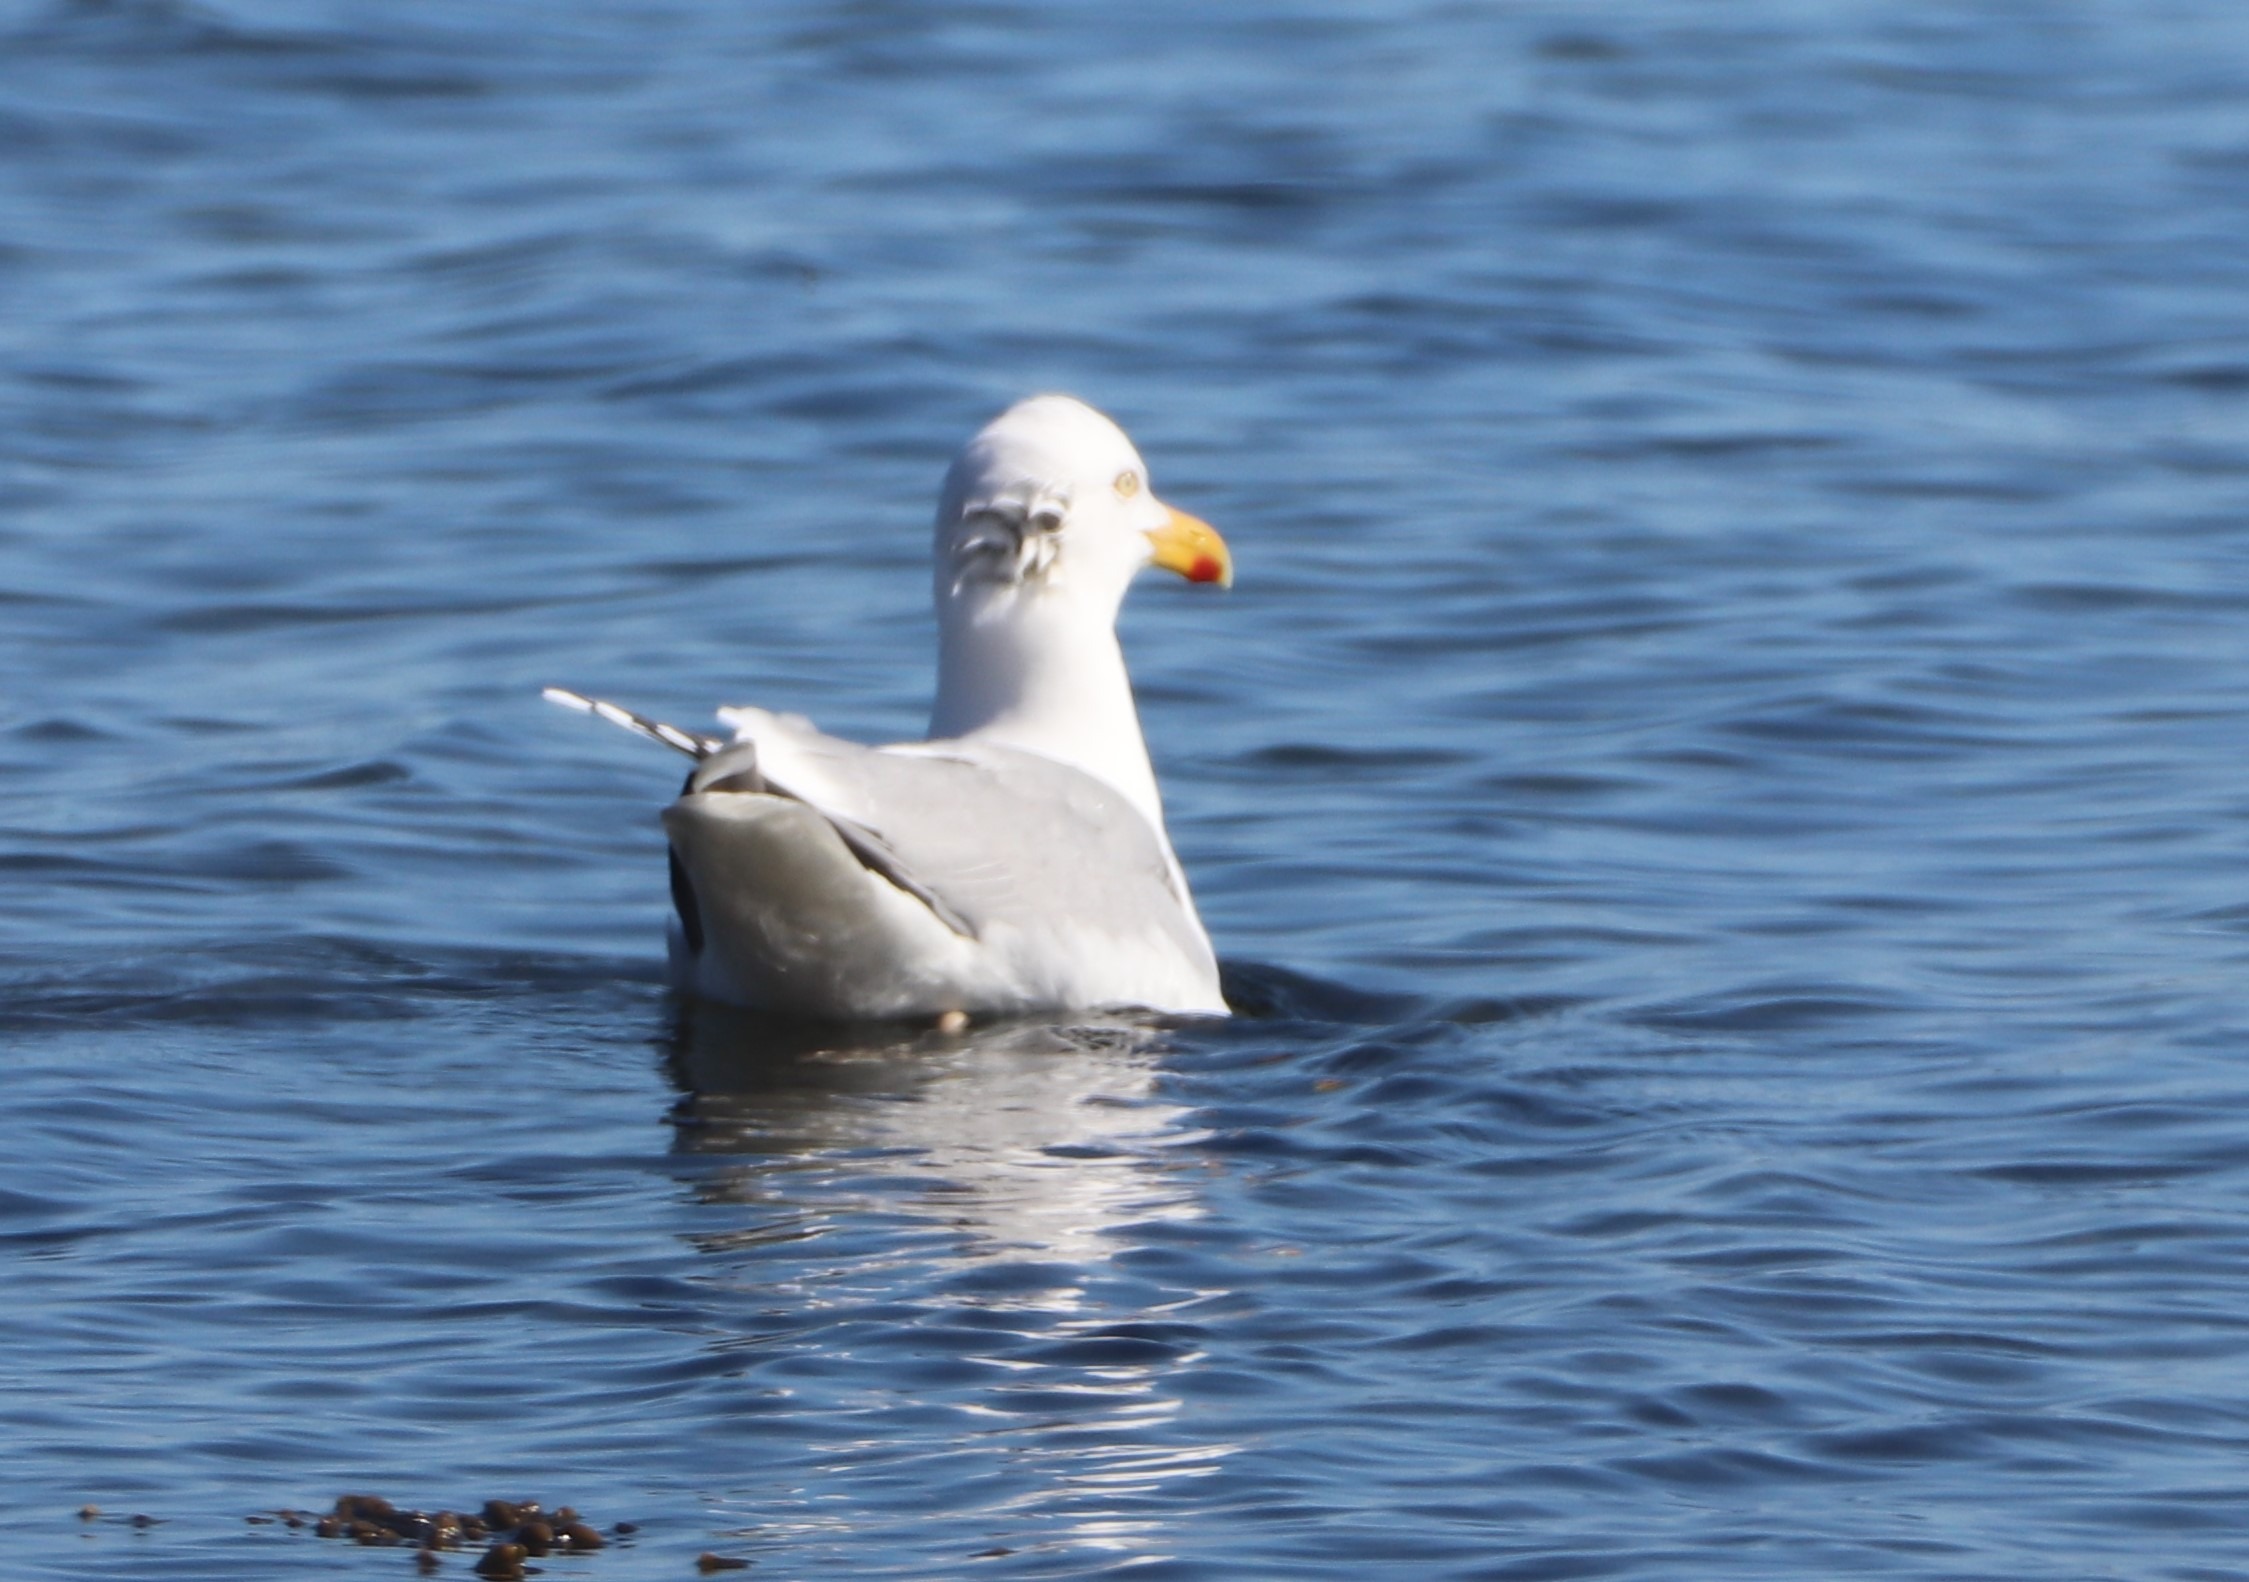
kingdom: Animalia
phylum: Chordata
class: Aves
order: Charadriiformes
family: Laridae
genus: Larus
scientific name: Larus argentatus
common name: Sølvmåge
